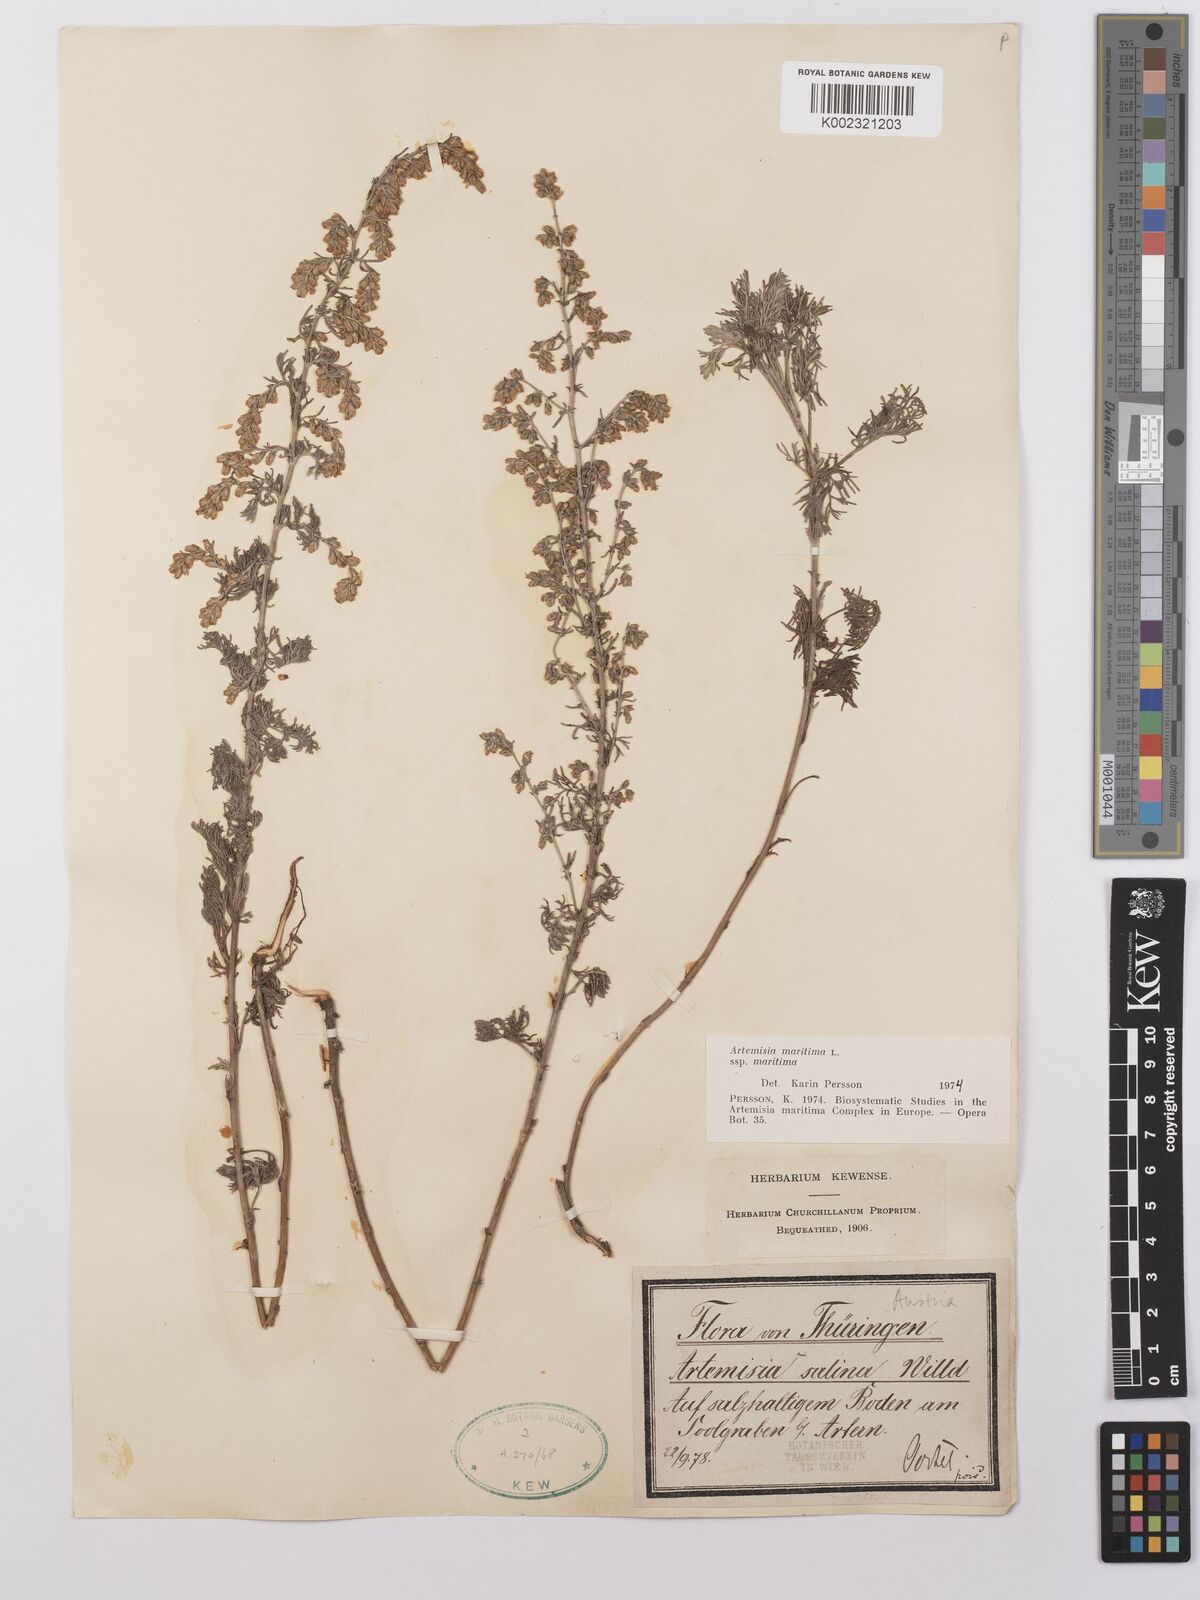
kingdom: Plantae
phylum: Tracheophyta
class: Magnoliopsida
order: Asterales
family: Asteraceae
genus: Artemisia
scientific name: Artemisia maritima
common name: Wormseed
